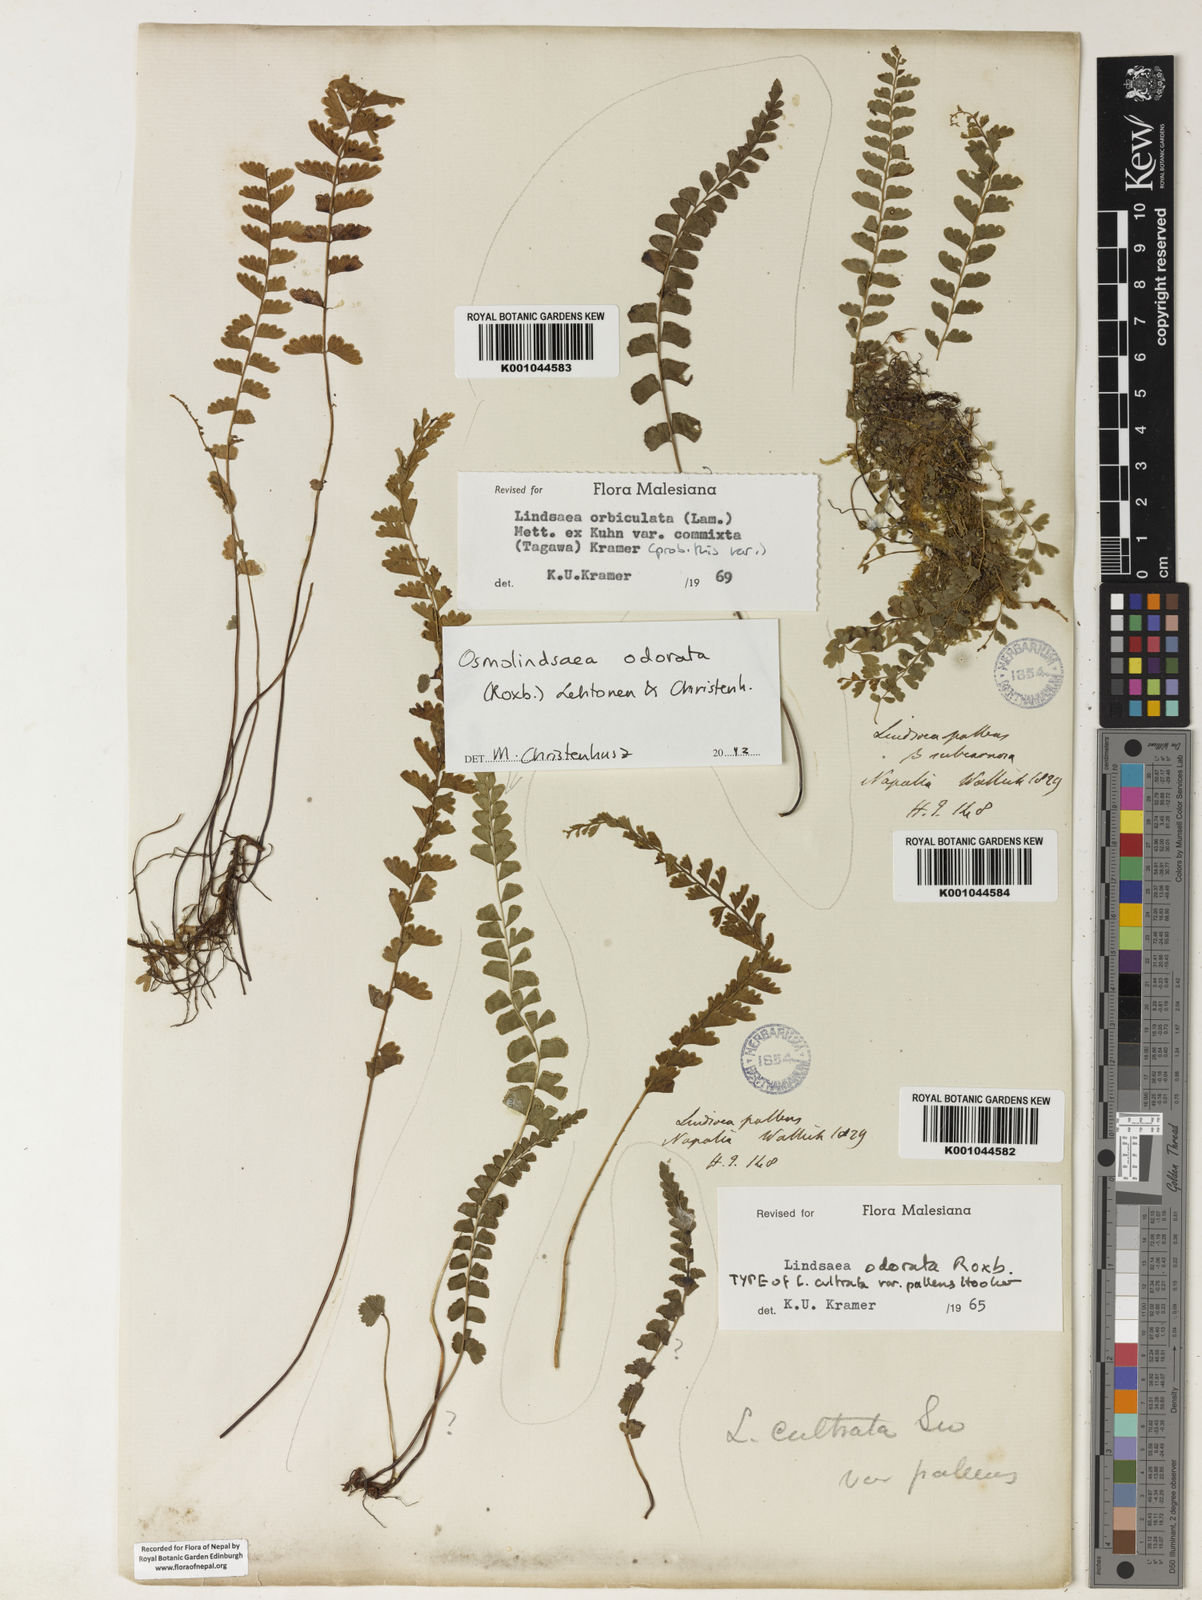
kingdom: Plantae
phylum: Tracheophyta
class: Polypodiopsida
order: Polypodiales
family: Lindsaeaceae
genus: Osmolindsaea
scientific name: Osmolindsaea odorata
